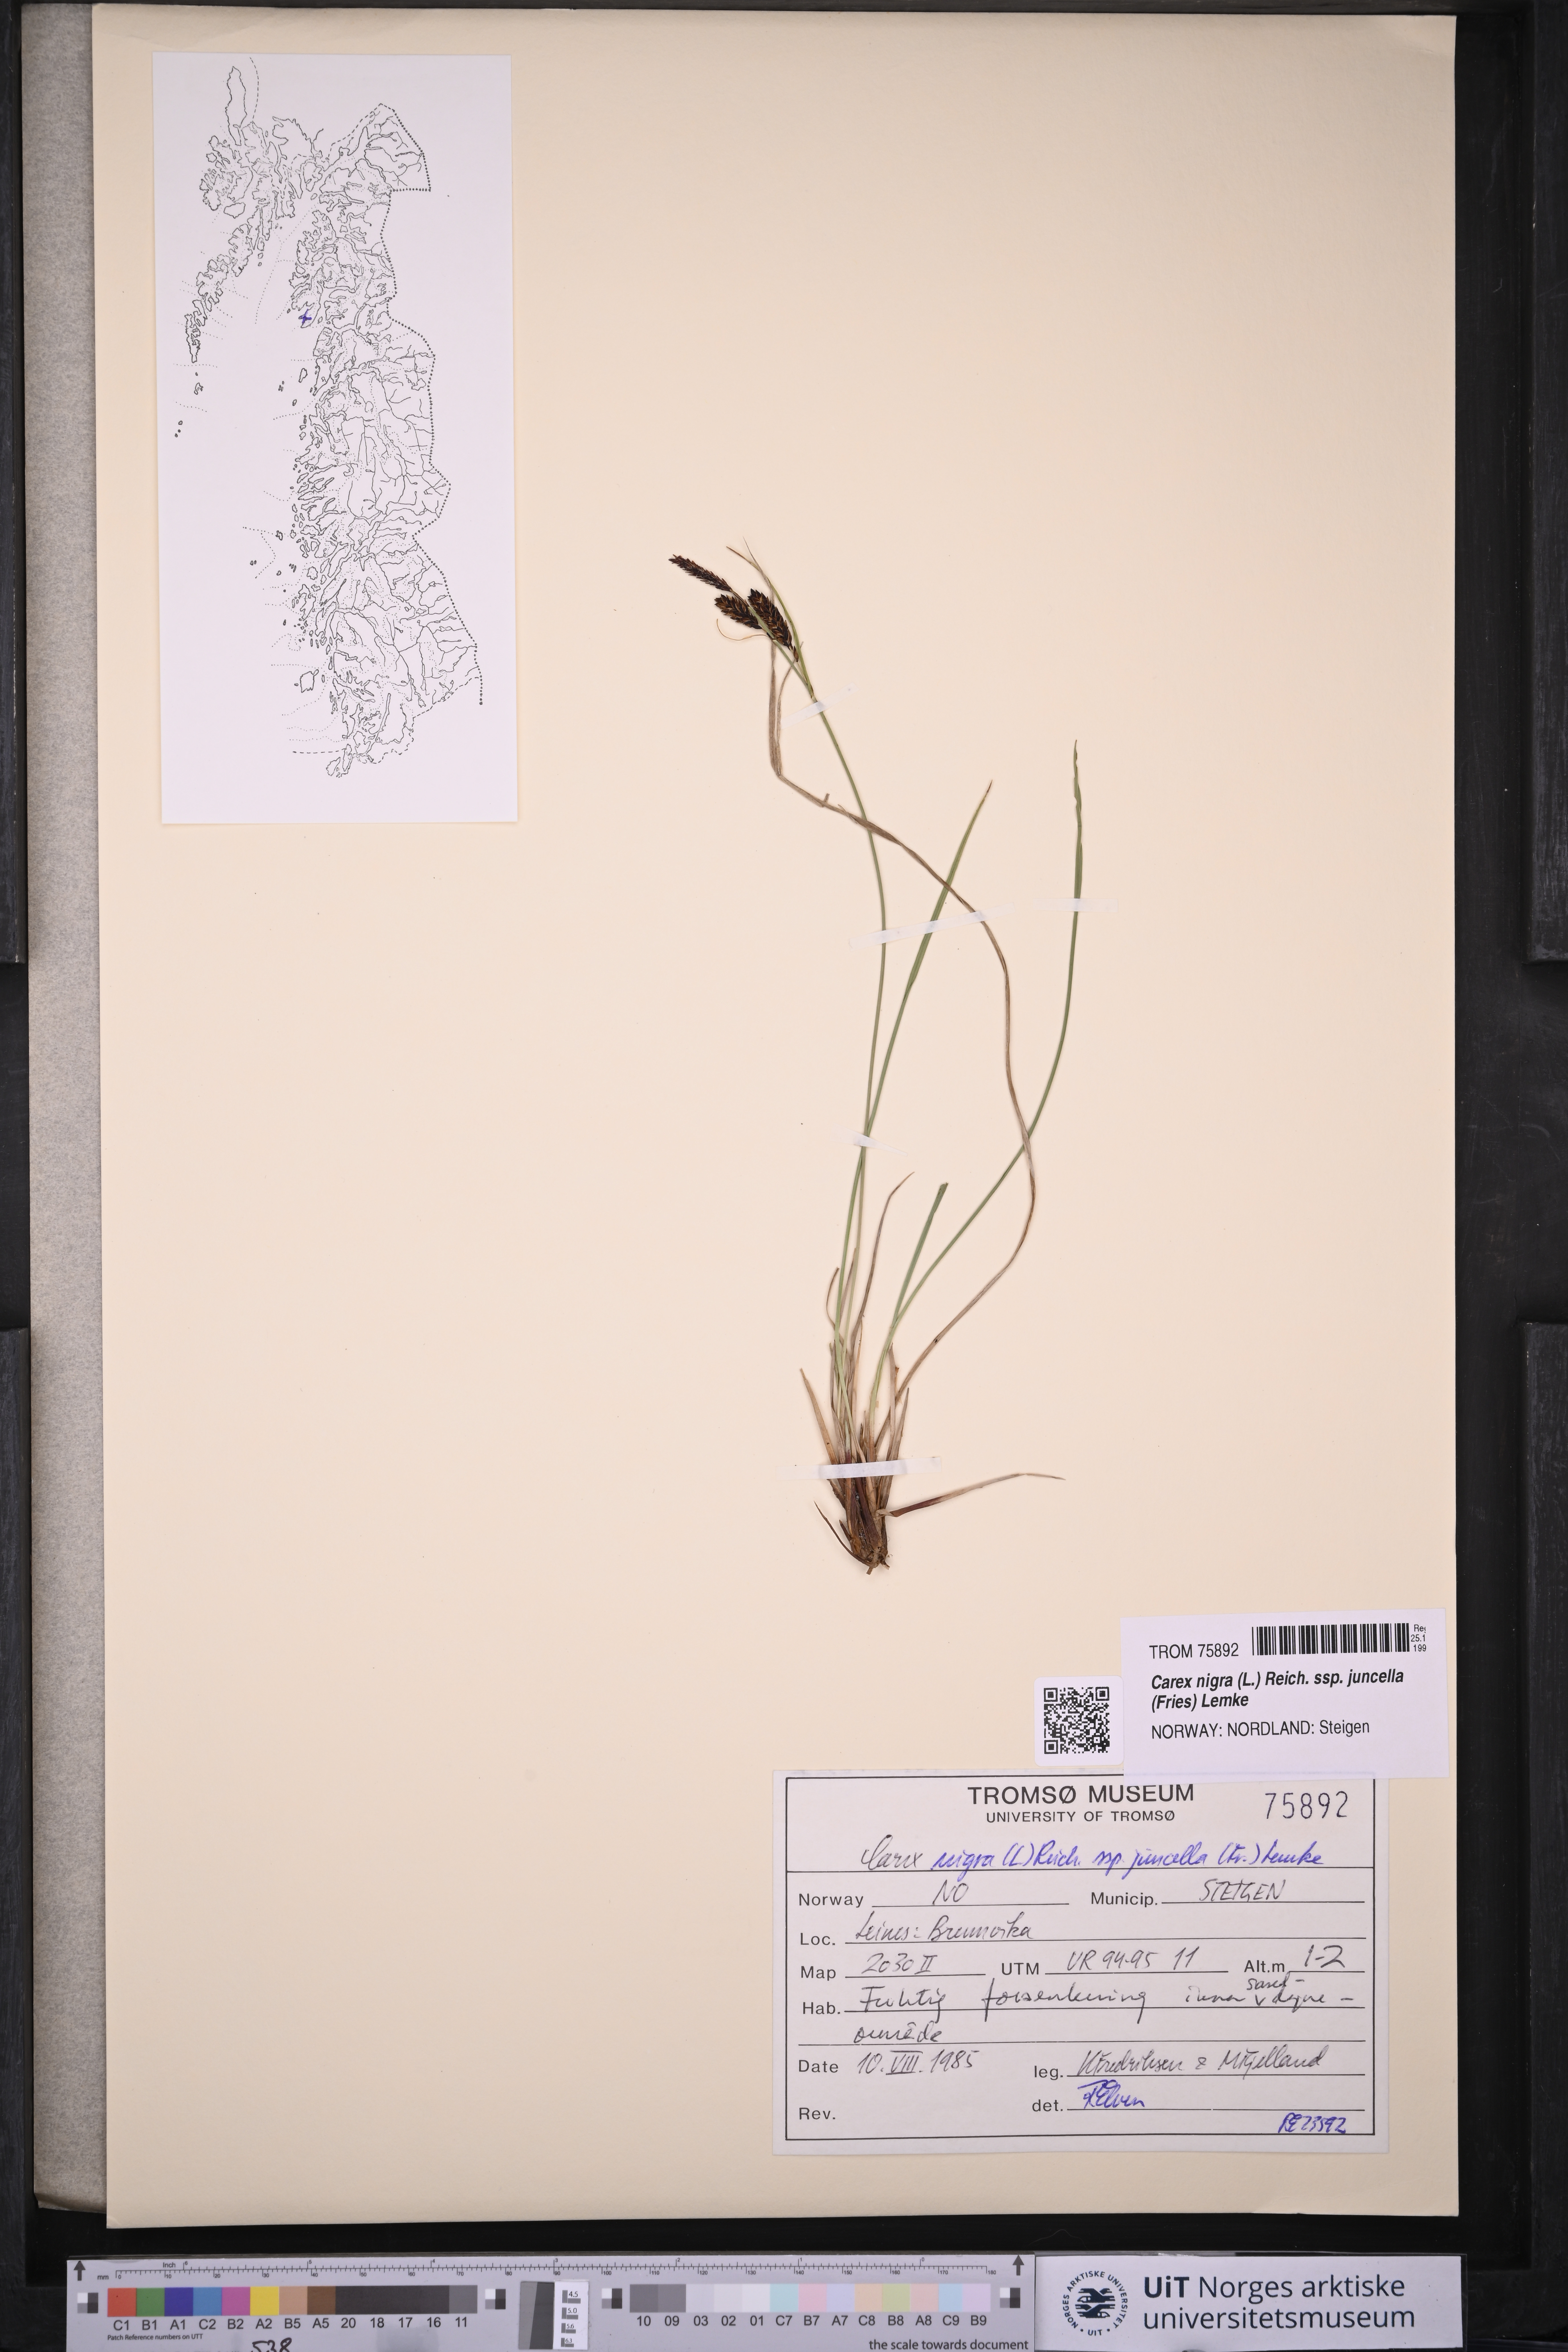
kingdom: Plantae
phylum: Tracheophyta
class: Liliopsida
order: Poales
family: Cyperaceae
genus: Carex
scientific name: Carex nigra
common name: Common sedge
